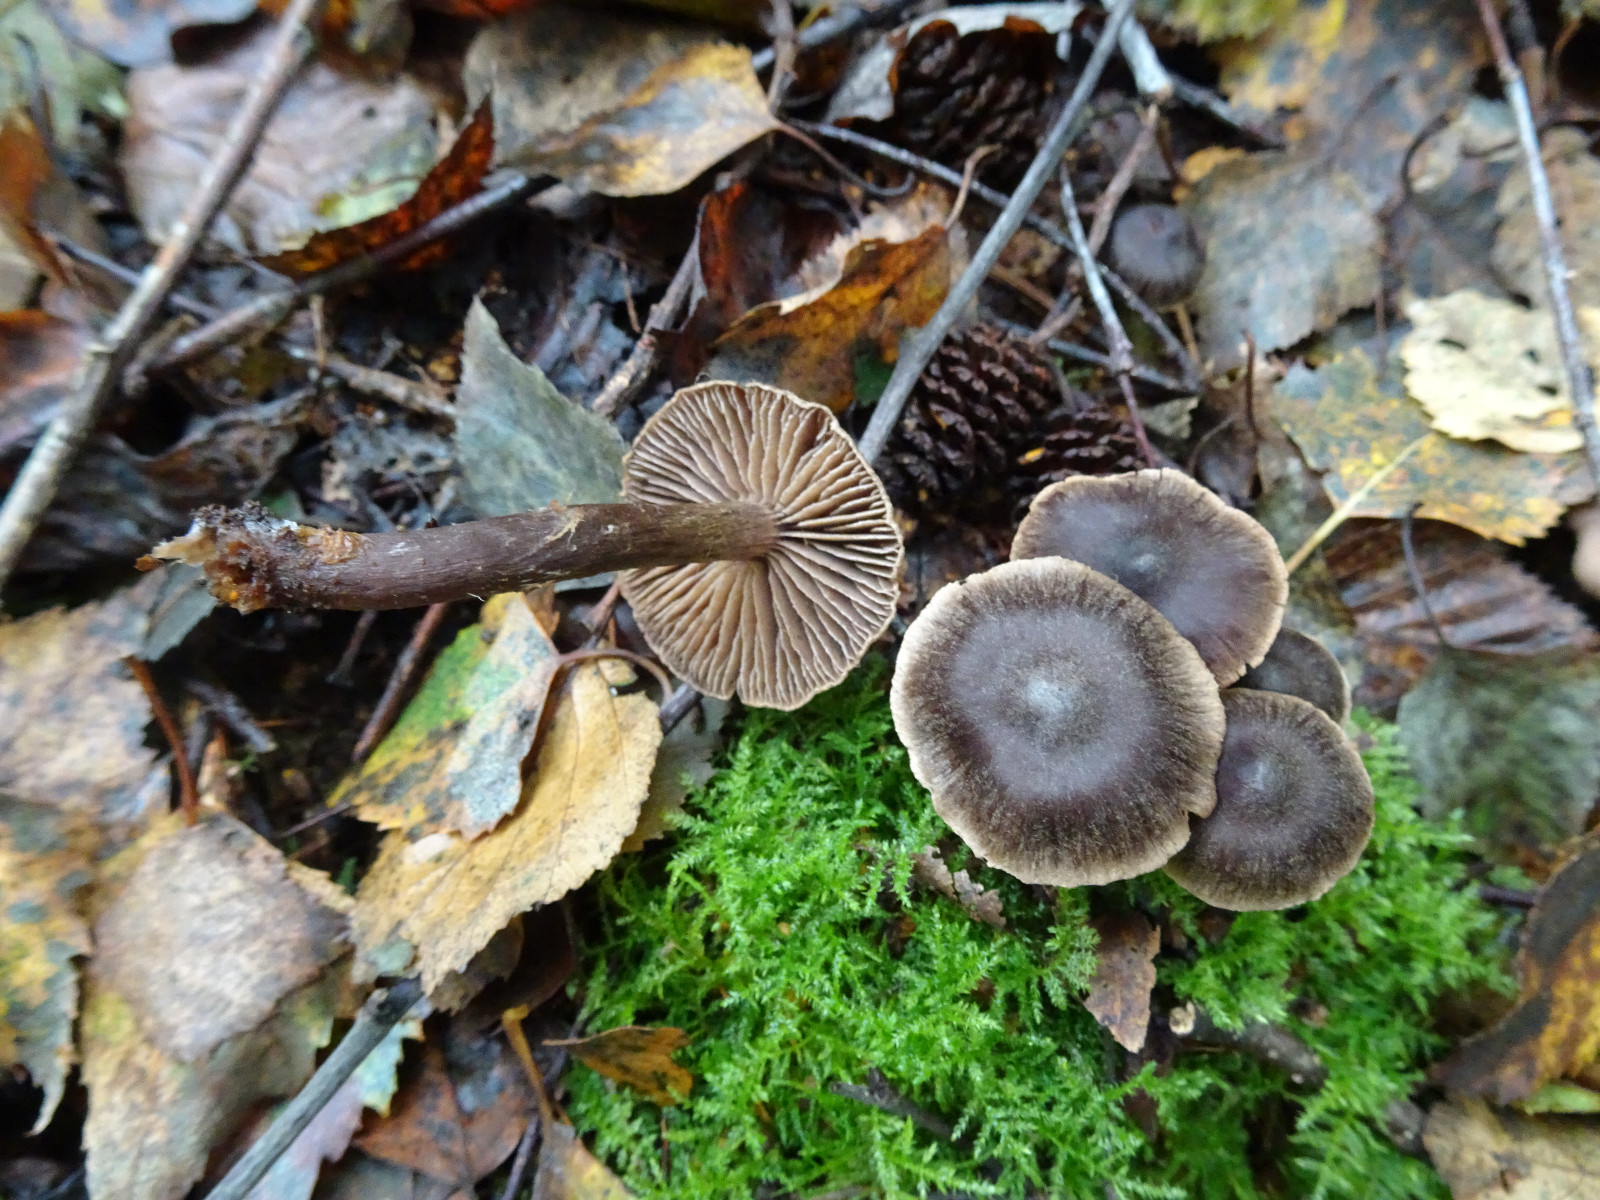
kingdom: Fungi
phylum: Basidiomycota
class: Agaricomycetes
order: Agaricales
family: Cortinariaceae
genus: Cortinarius
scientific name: Cortinarius umbrinolens
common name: mørk slørhat
